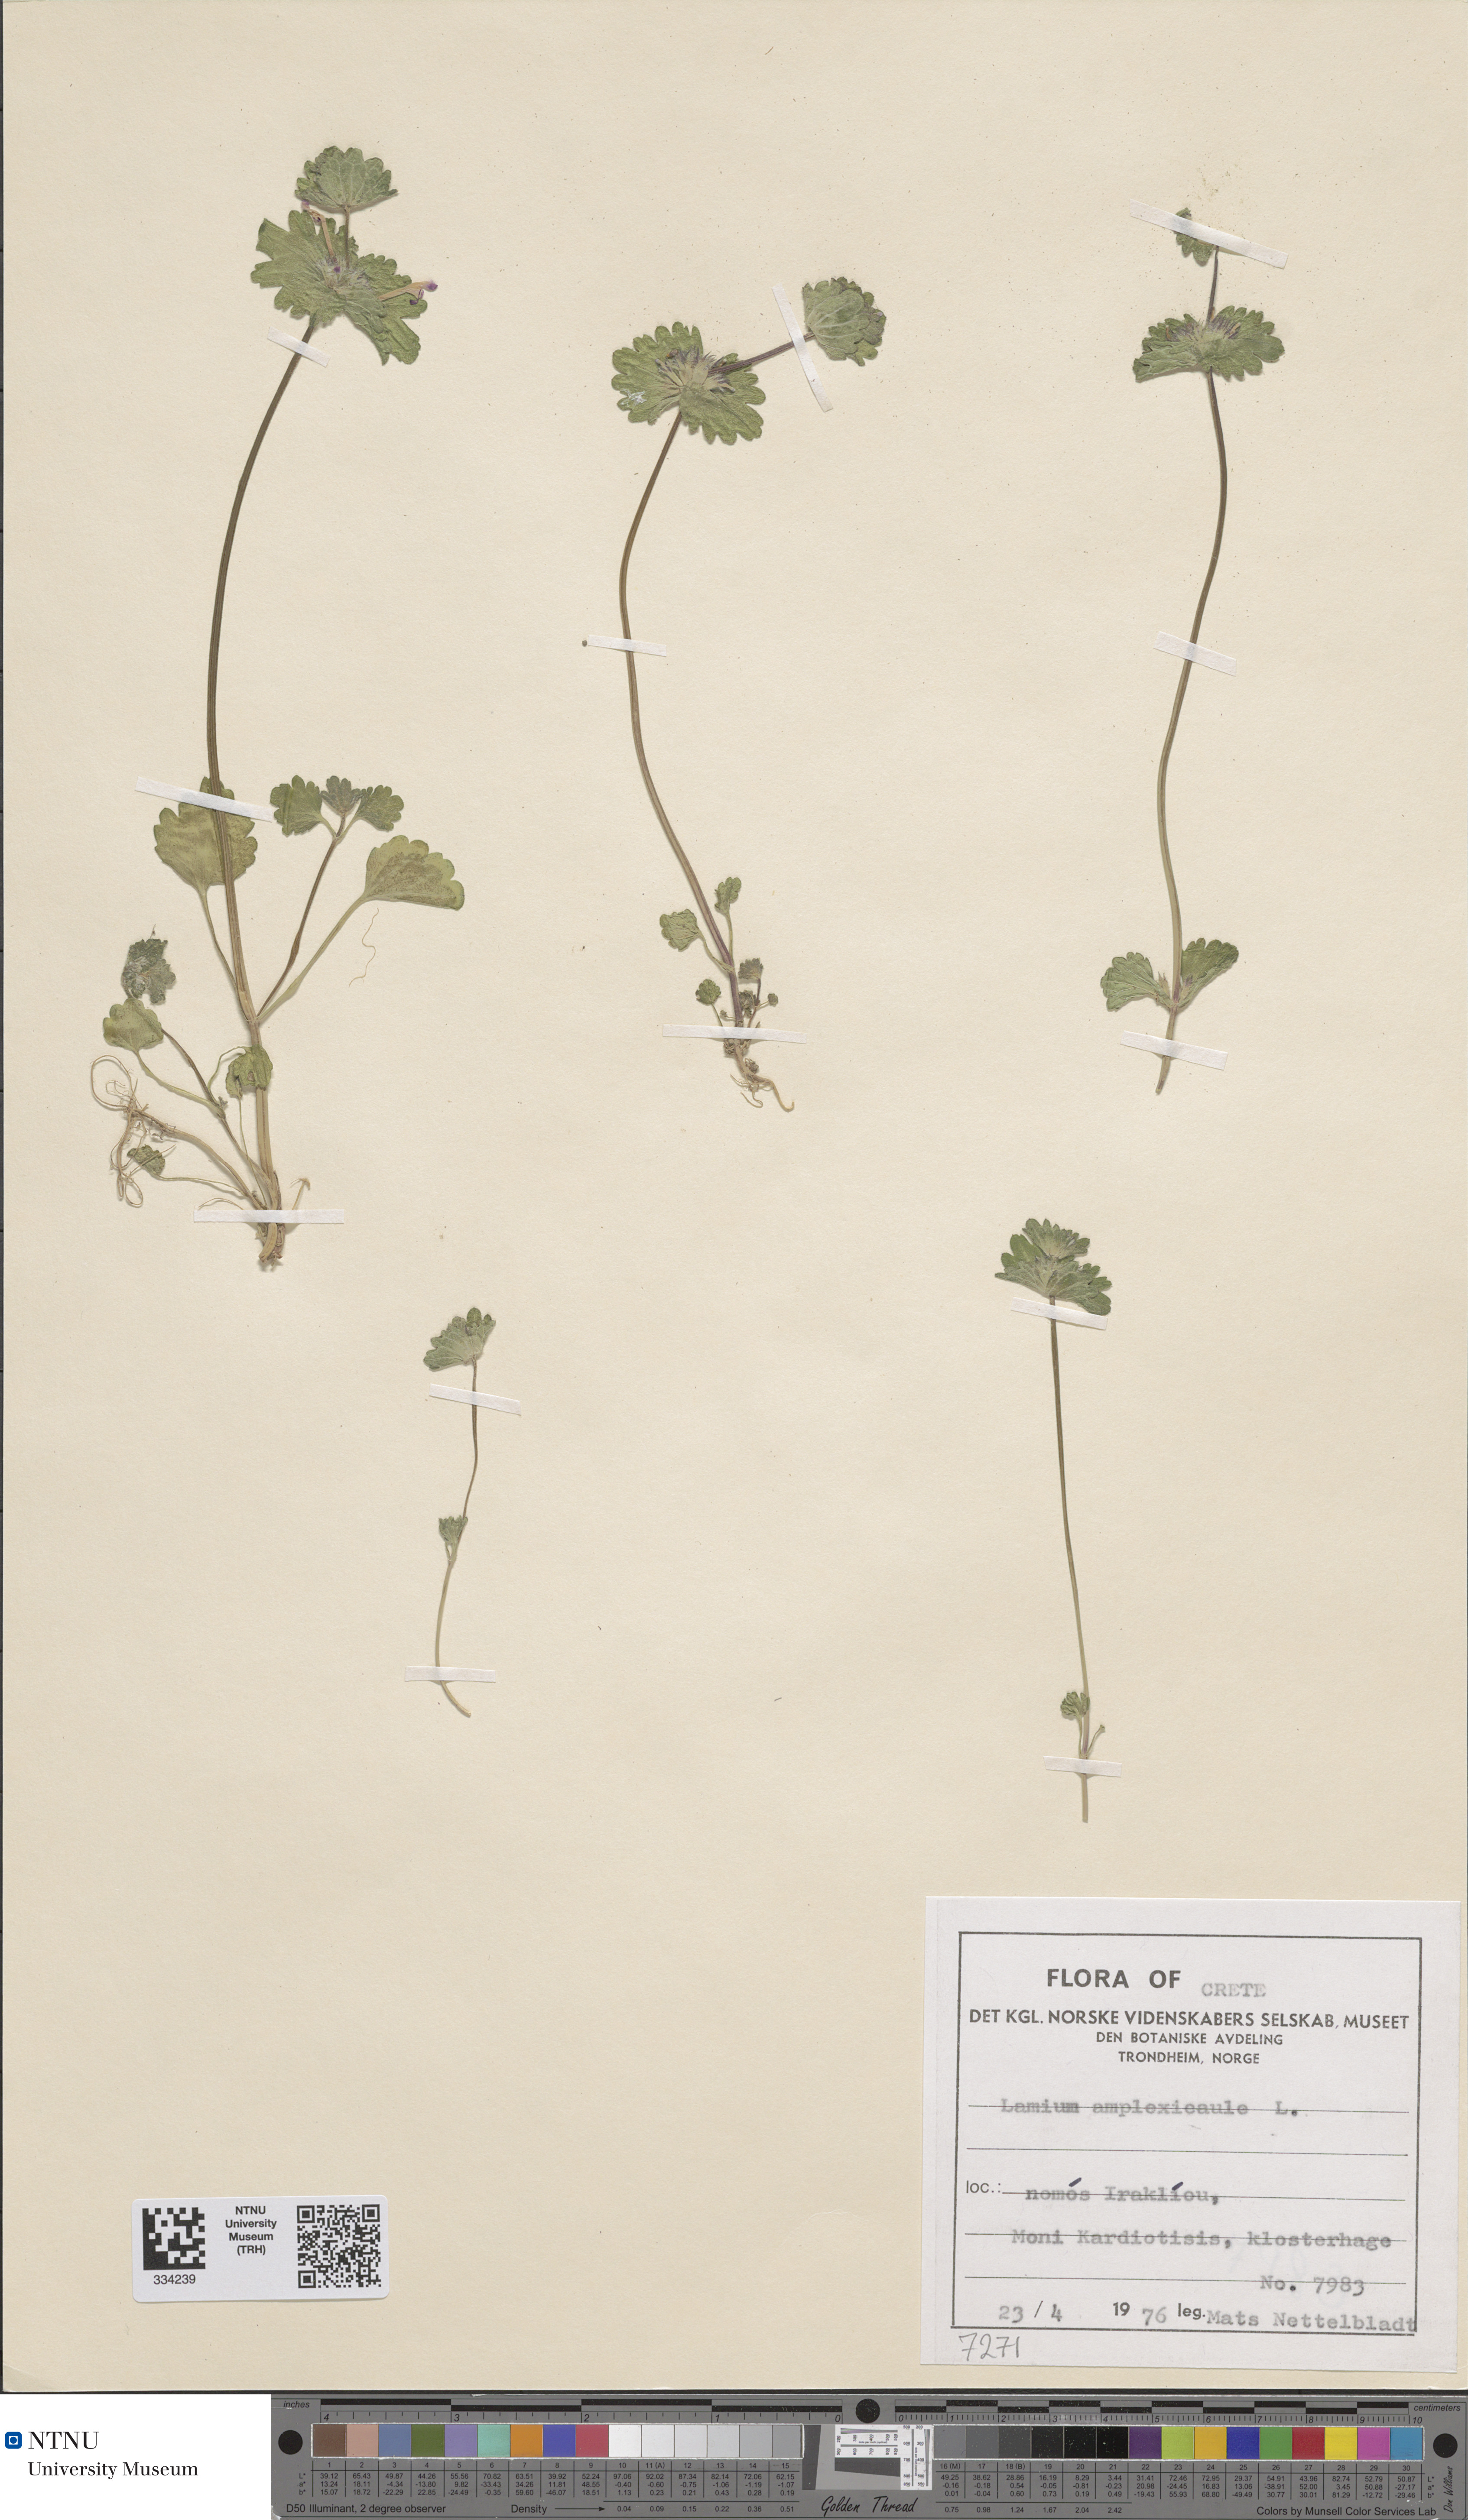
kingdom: Plantae
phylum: Tracheophyta
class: Magnoliopsida
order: Lamiales
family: Lamiaceae
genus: Lamium
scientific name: Lamium amplexicaule
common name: Henbit dead-nettle
